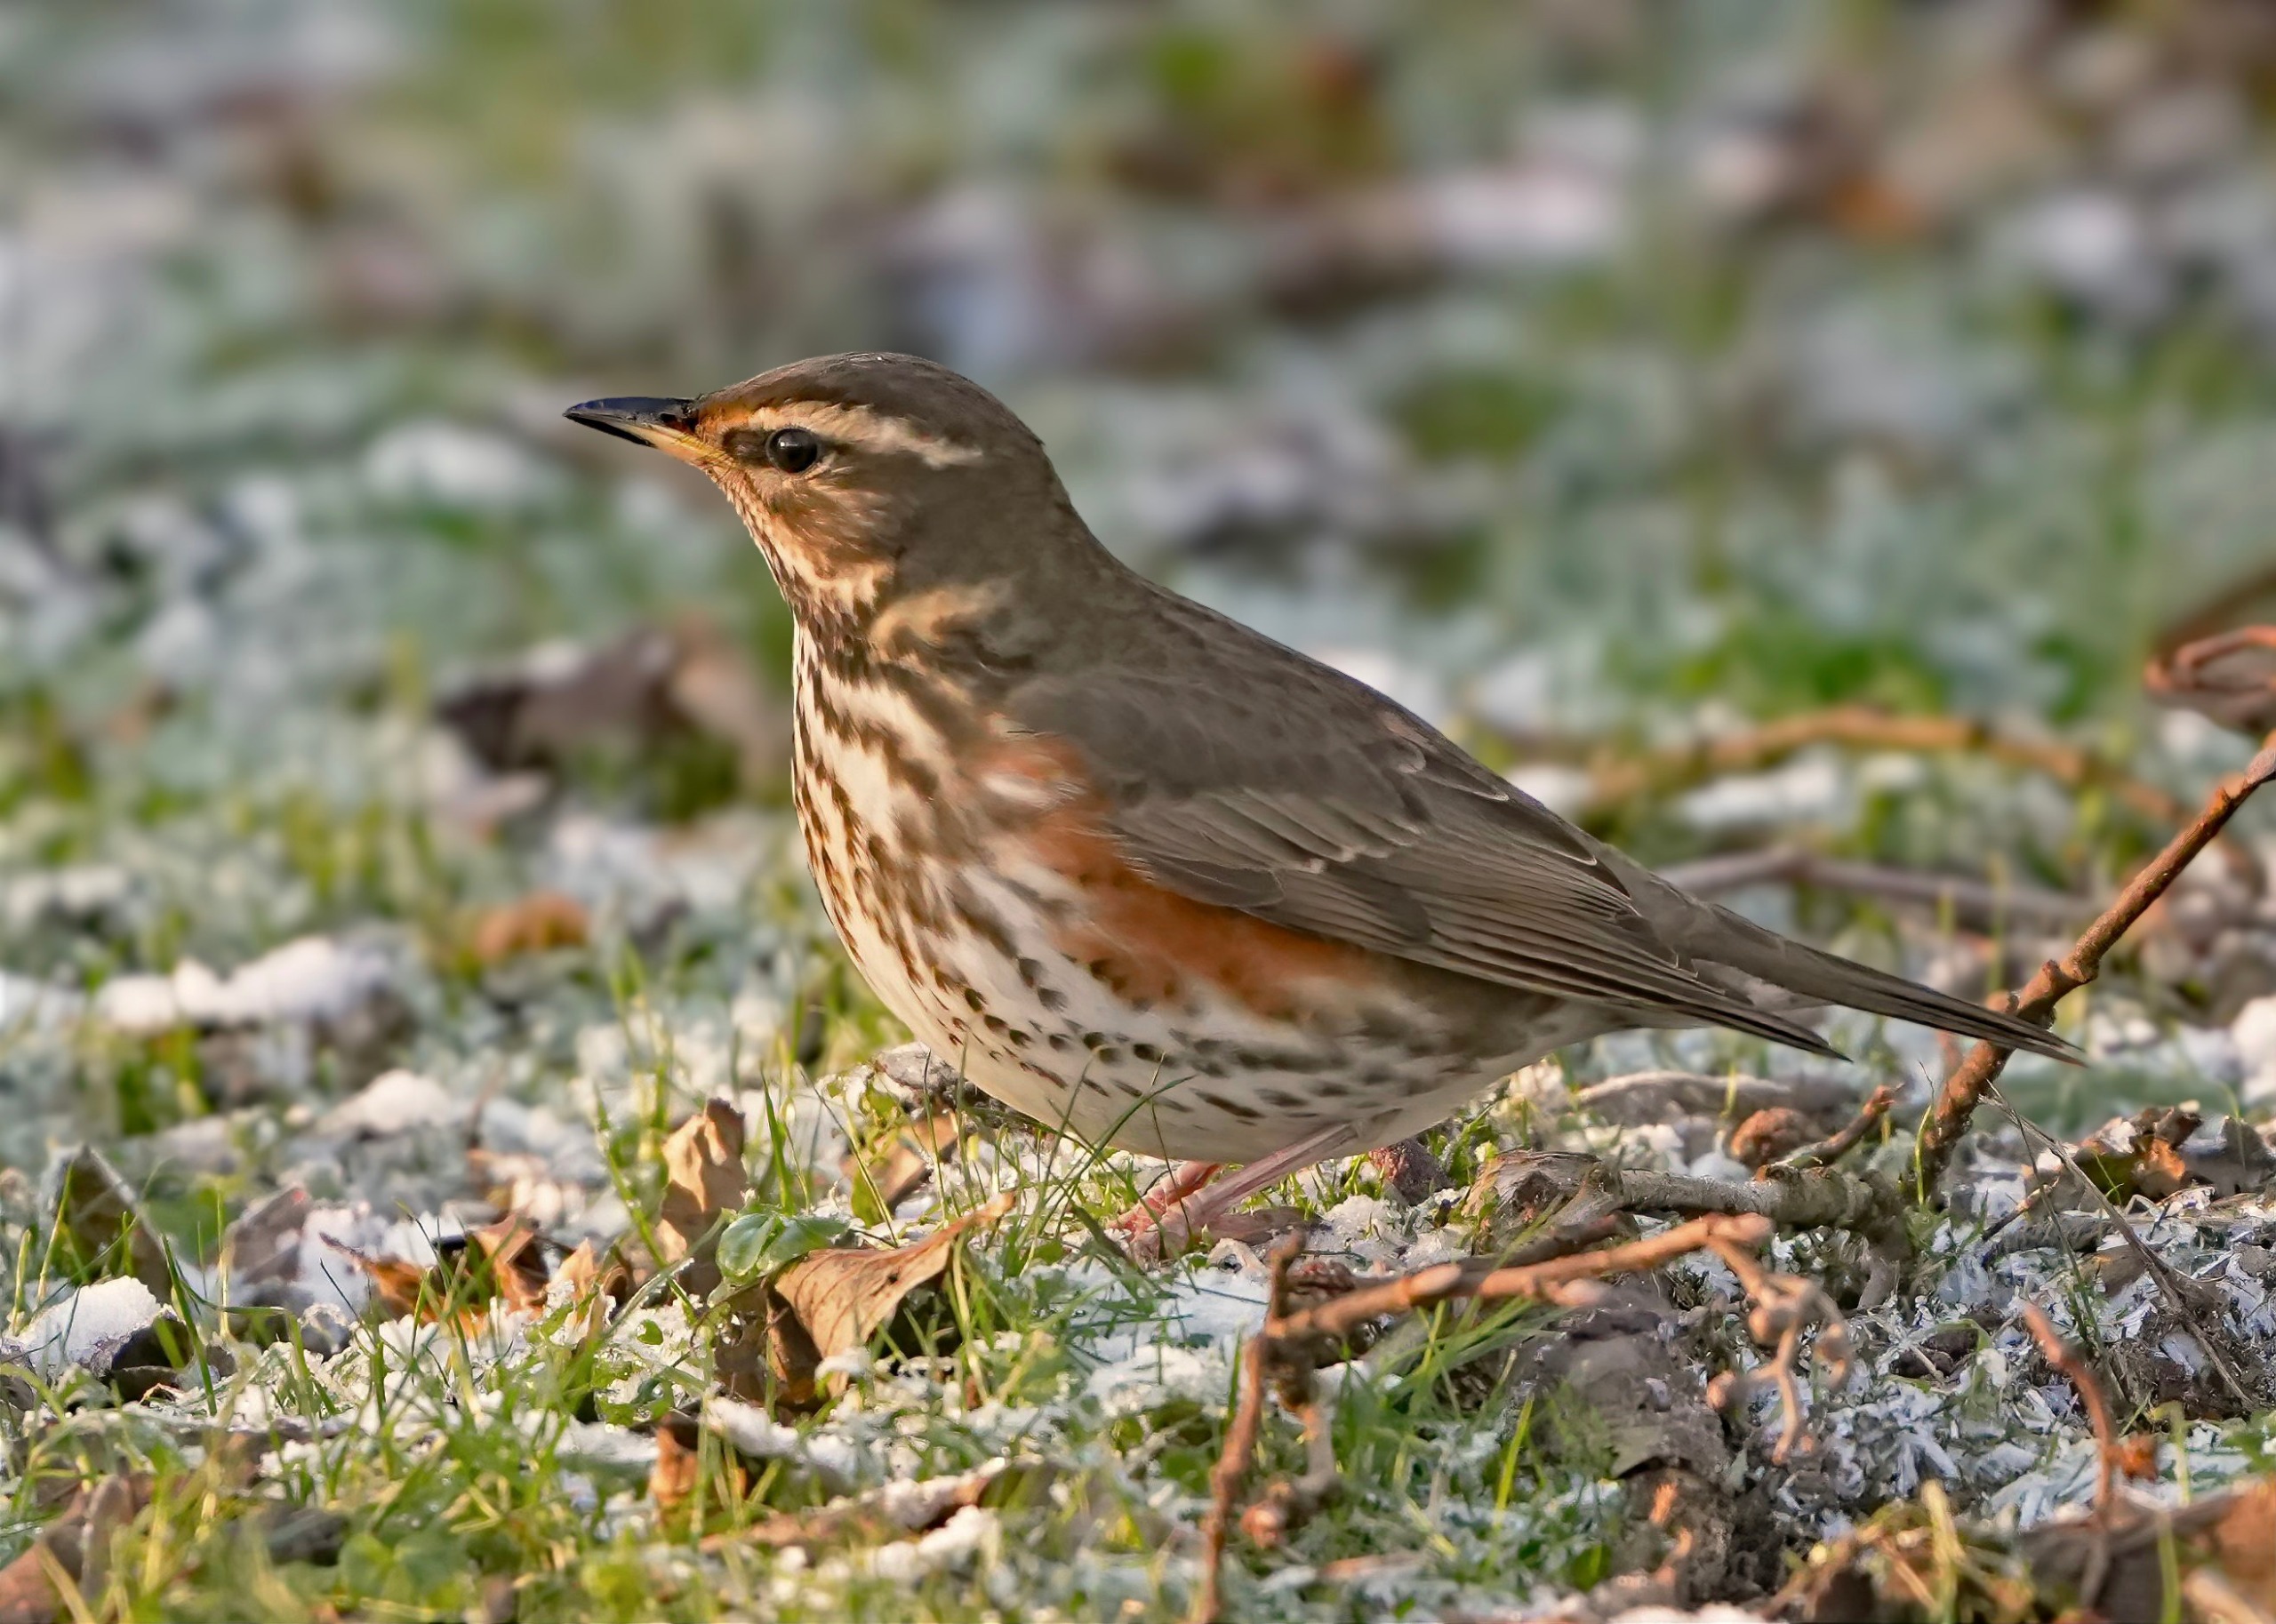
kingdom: Animalia
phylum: Chordata
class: Aves
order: Passeriformes
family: Turdidae
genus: Turdus
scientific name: Turdus iliacus
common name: Vindrossel
